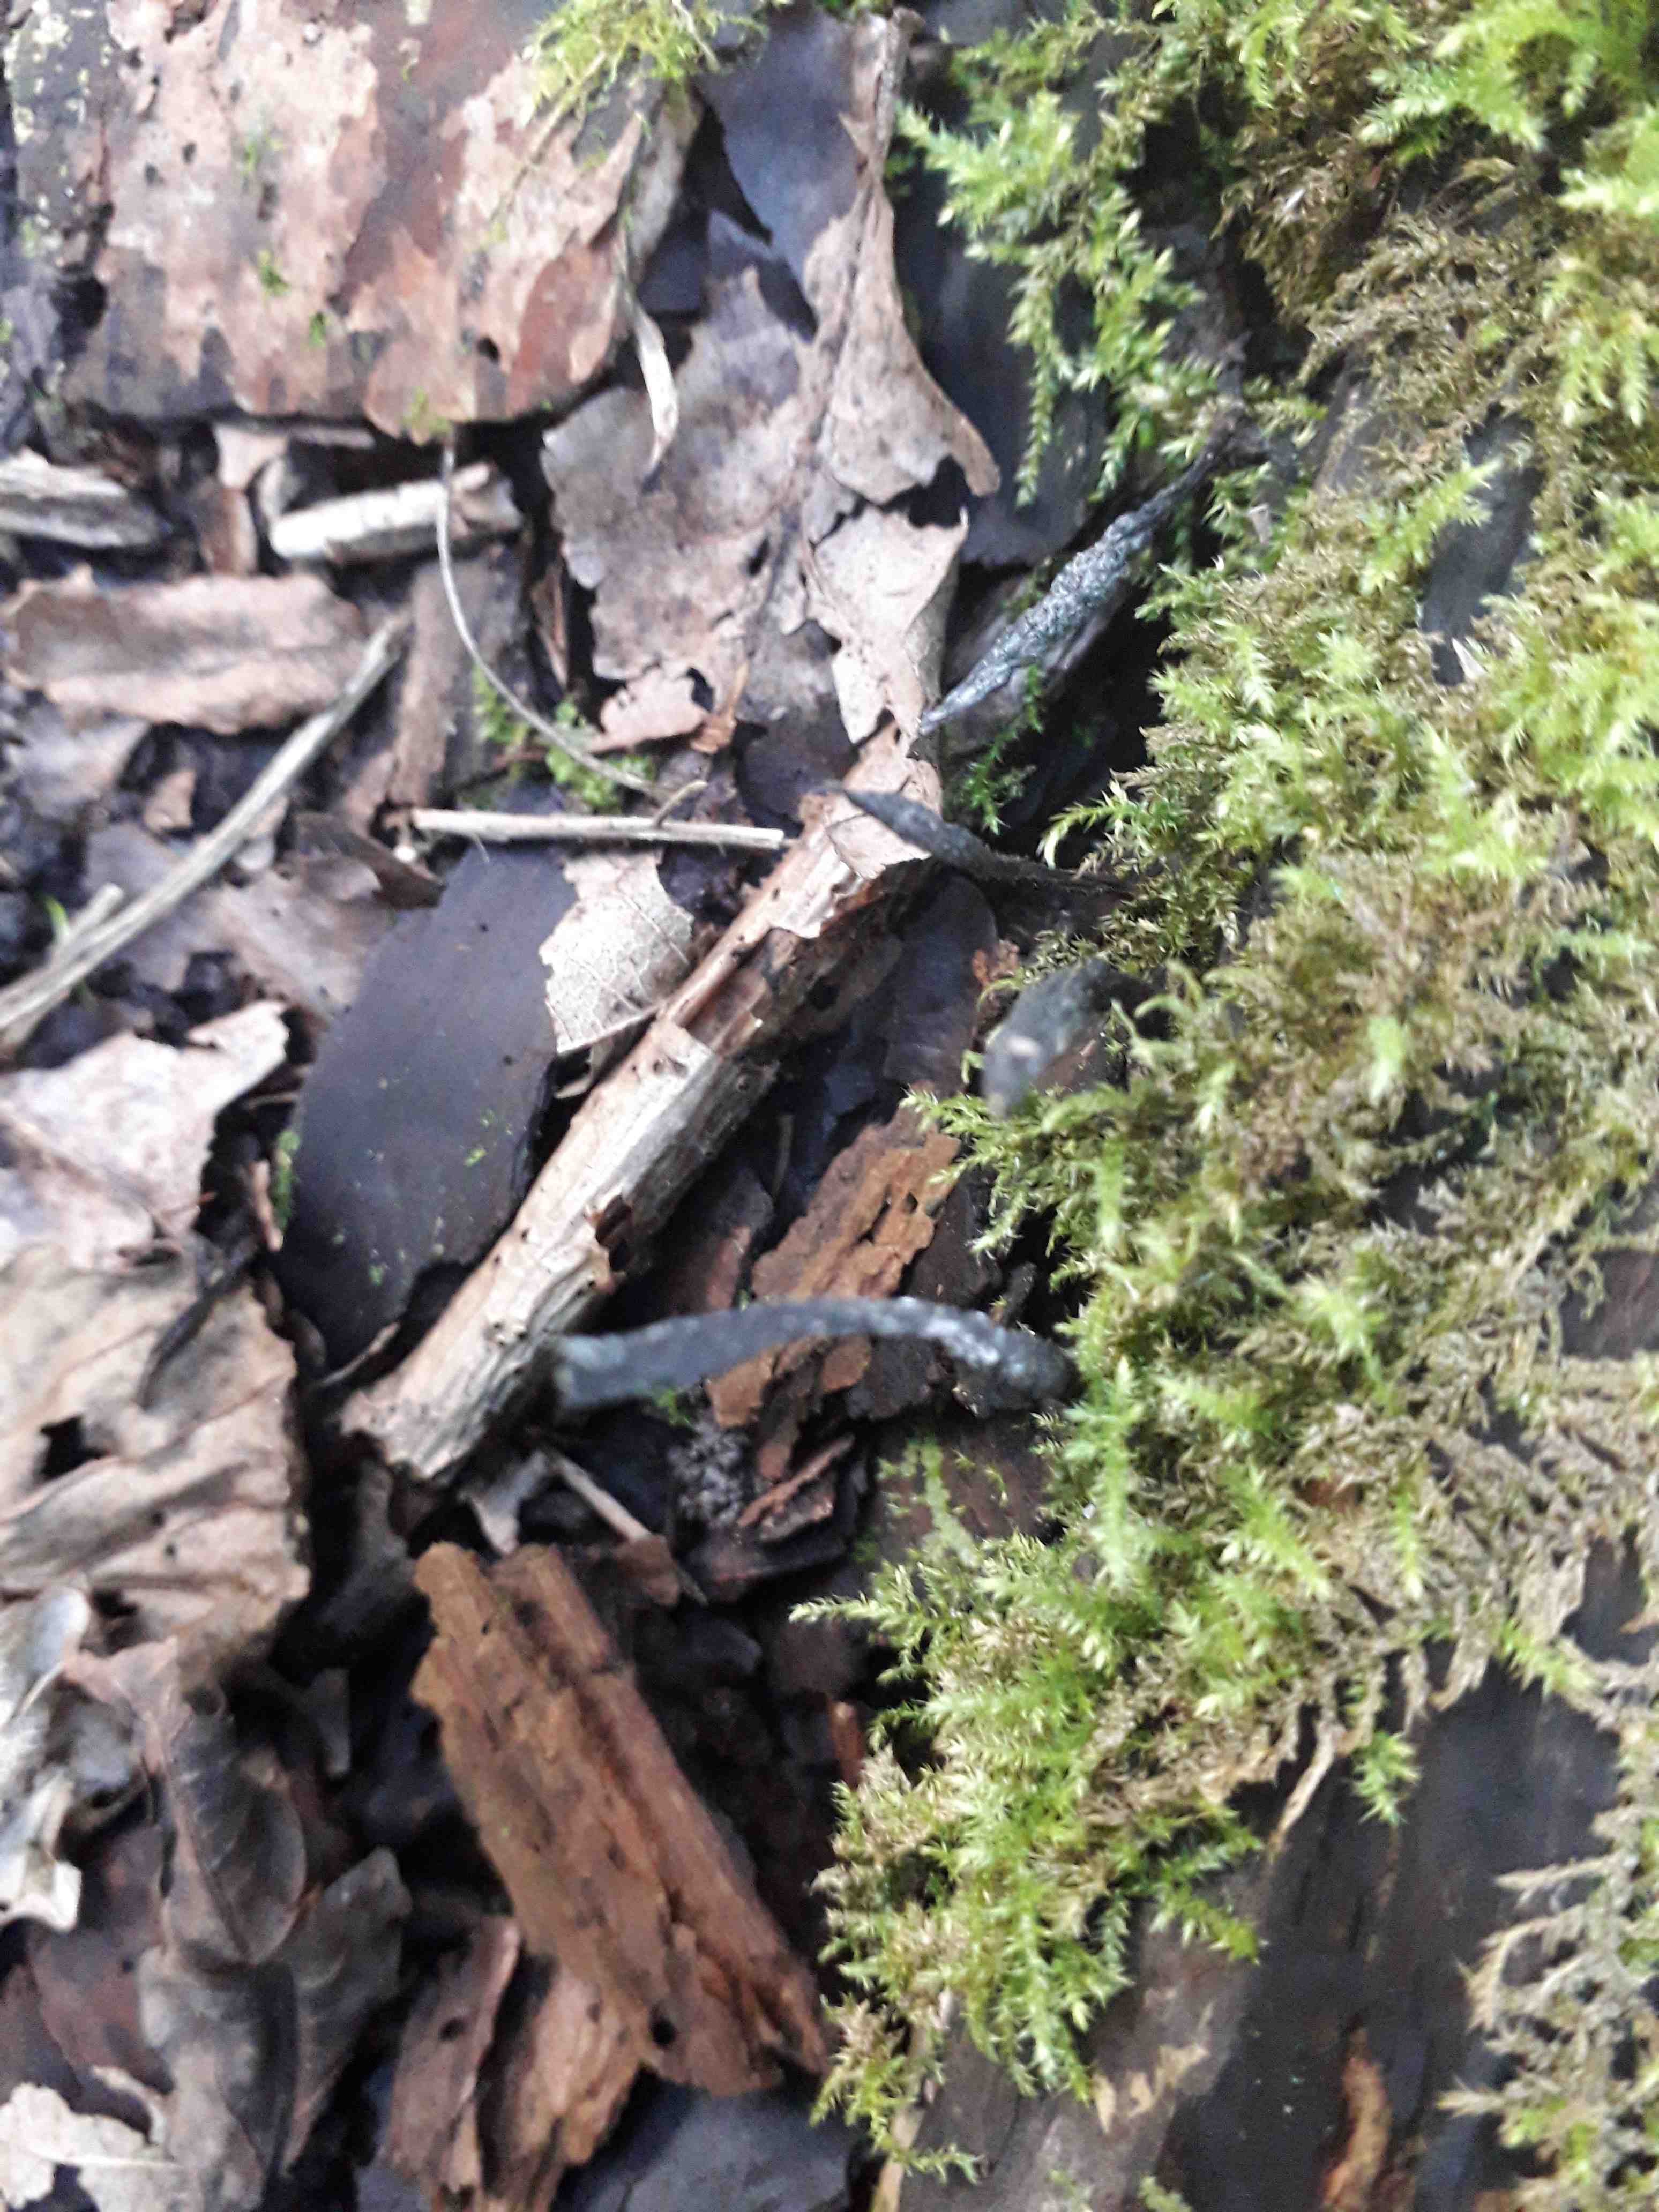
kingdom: Fungi
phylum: Ascomycota
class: Sordariomycetes
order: Xylariales
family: Xylariaceae
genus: Xylaria
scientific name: Xylaria hypoxylon
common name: grenet stødsvamp
